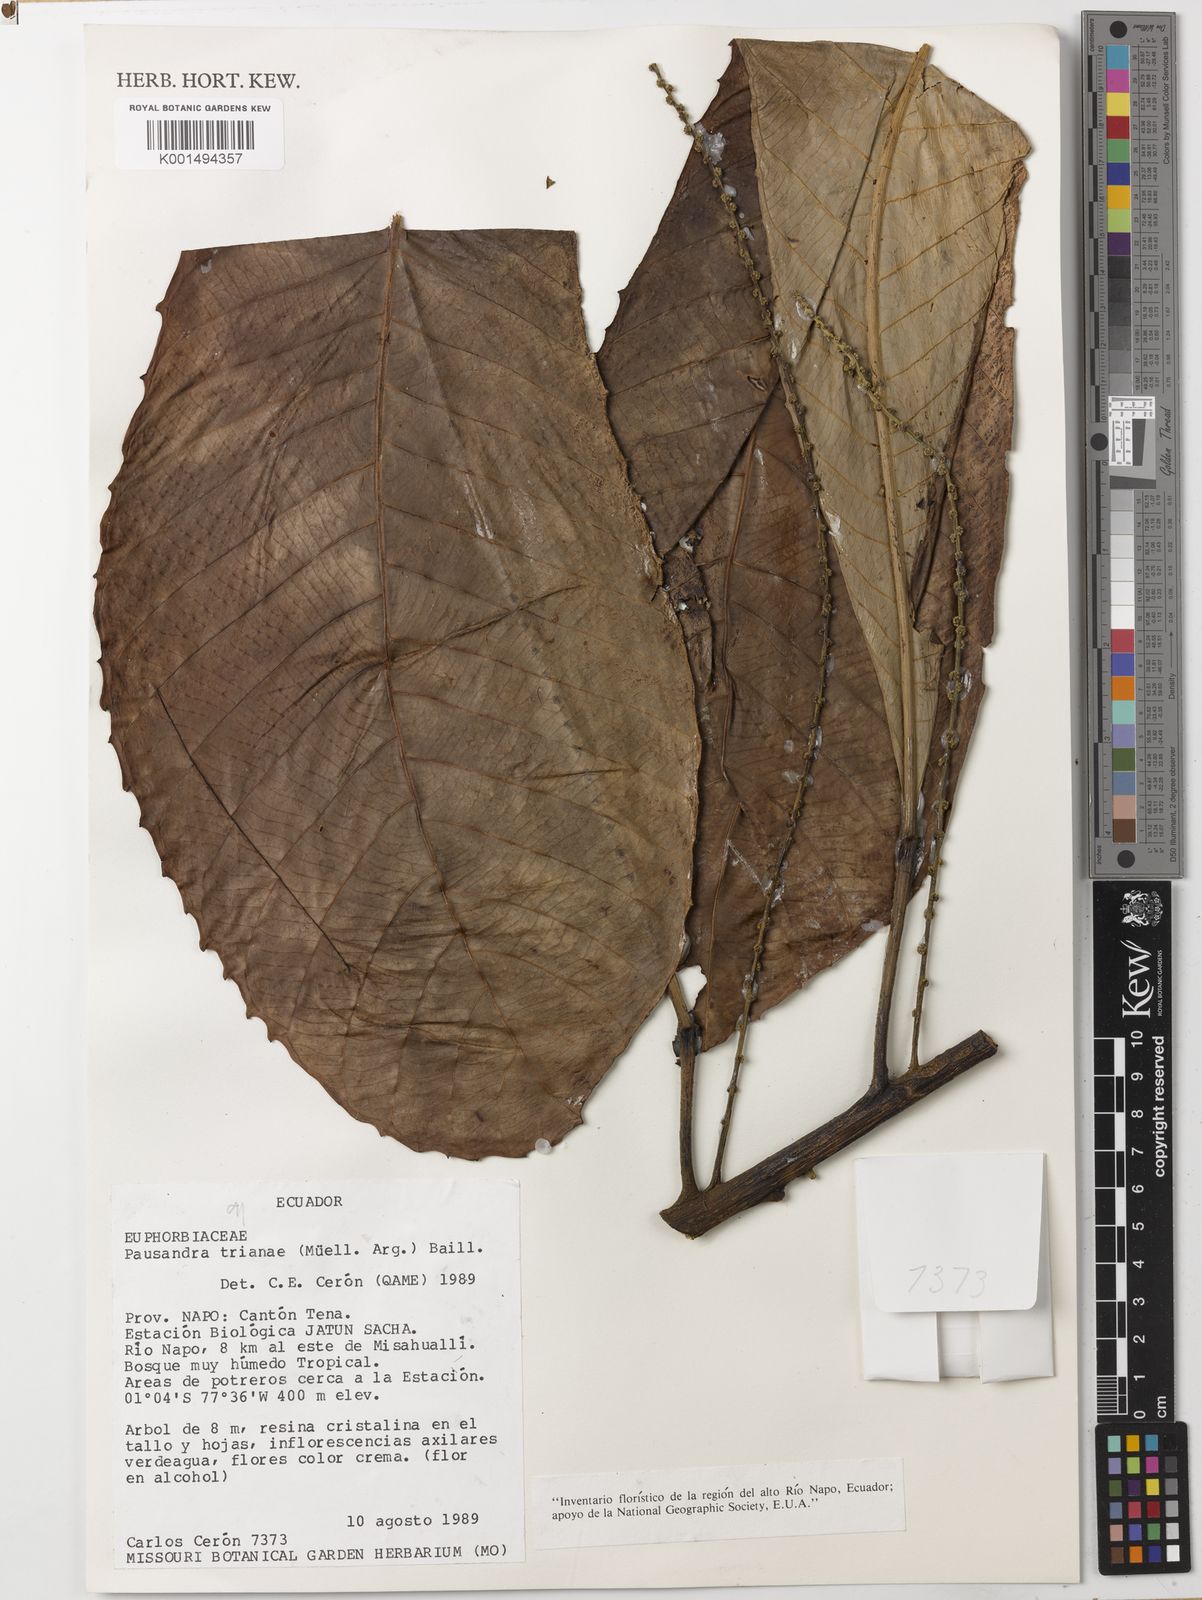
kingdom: Plantae
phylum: Tracheophyta
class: Magnoliopsida
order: Malpighiales
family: Euphorbiaceae
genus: Pausandra
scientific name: Pausandra trianae
